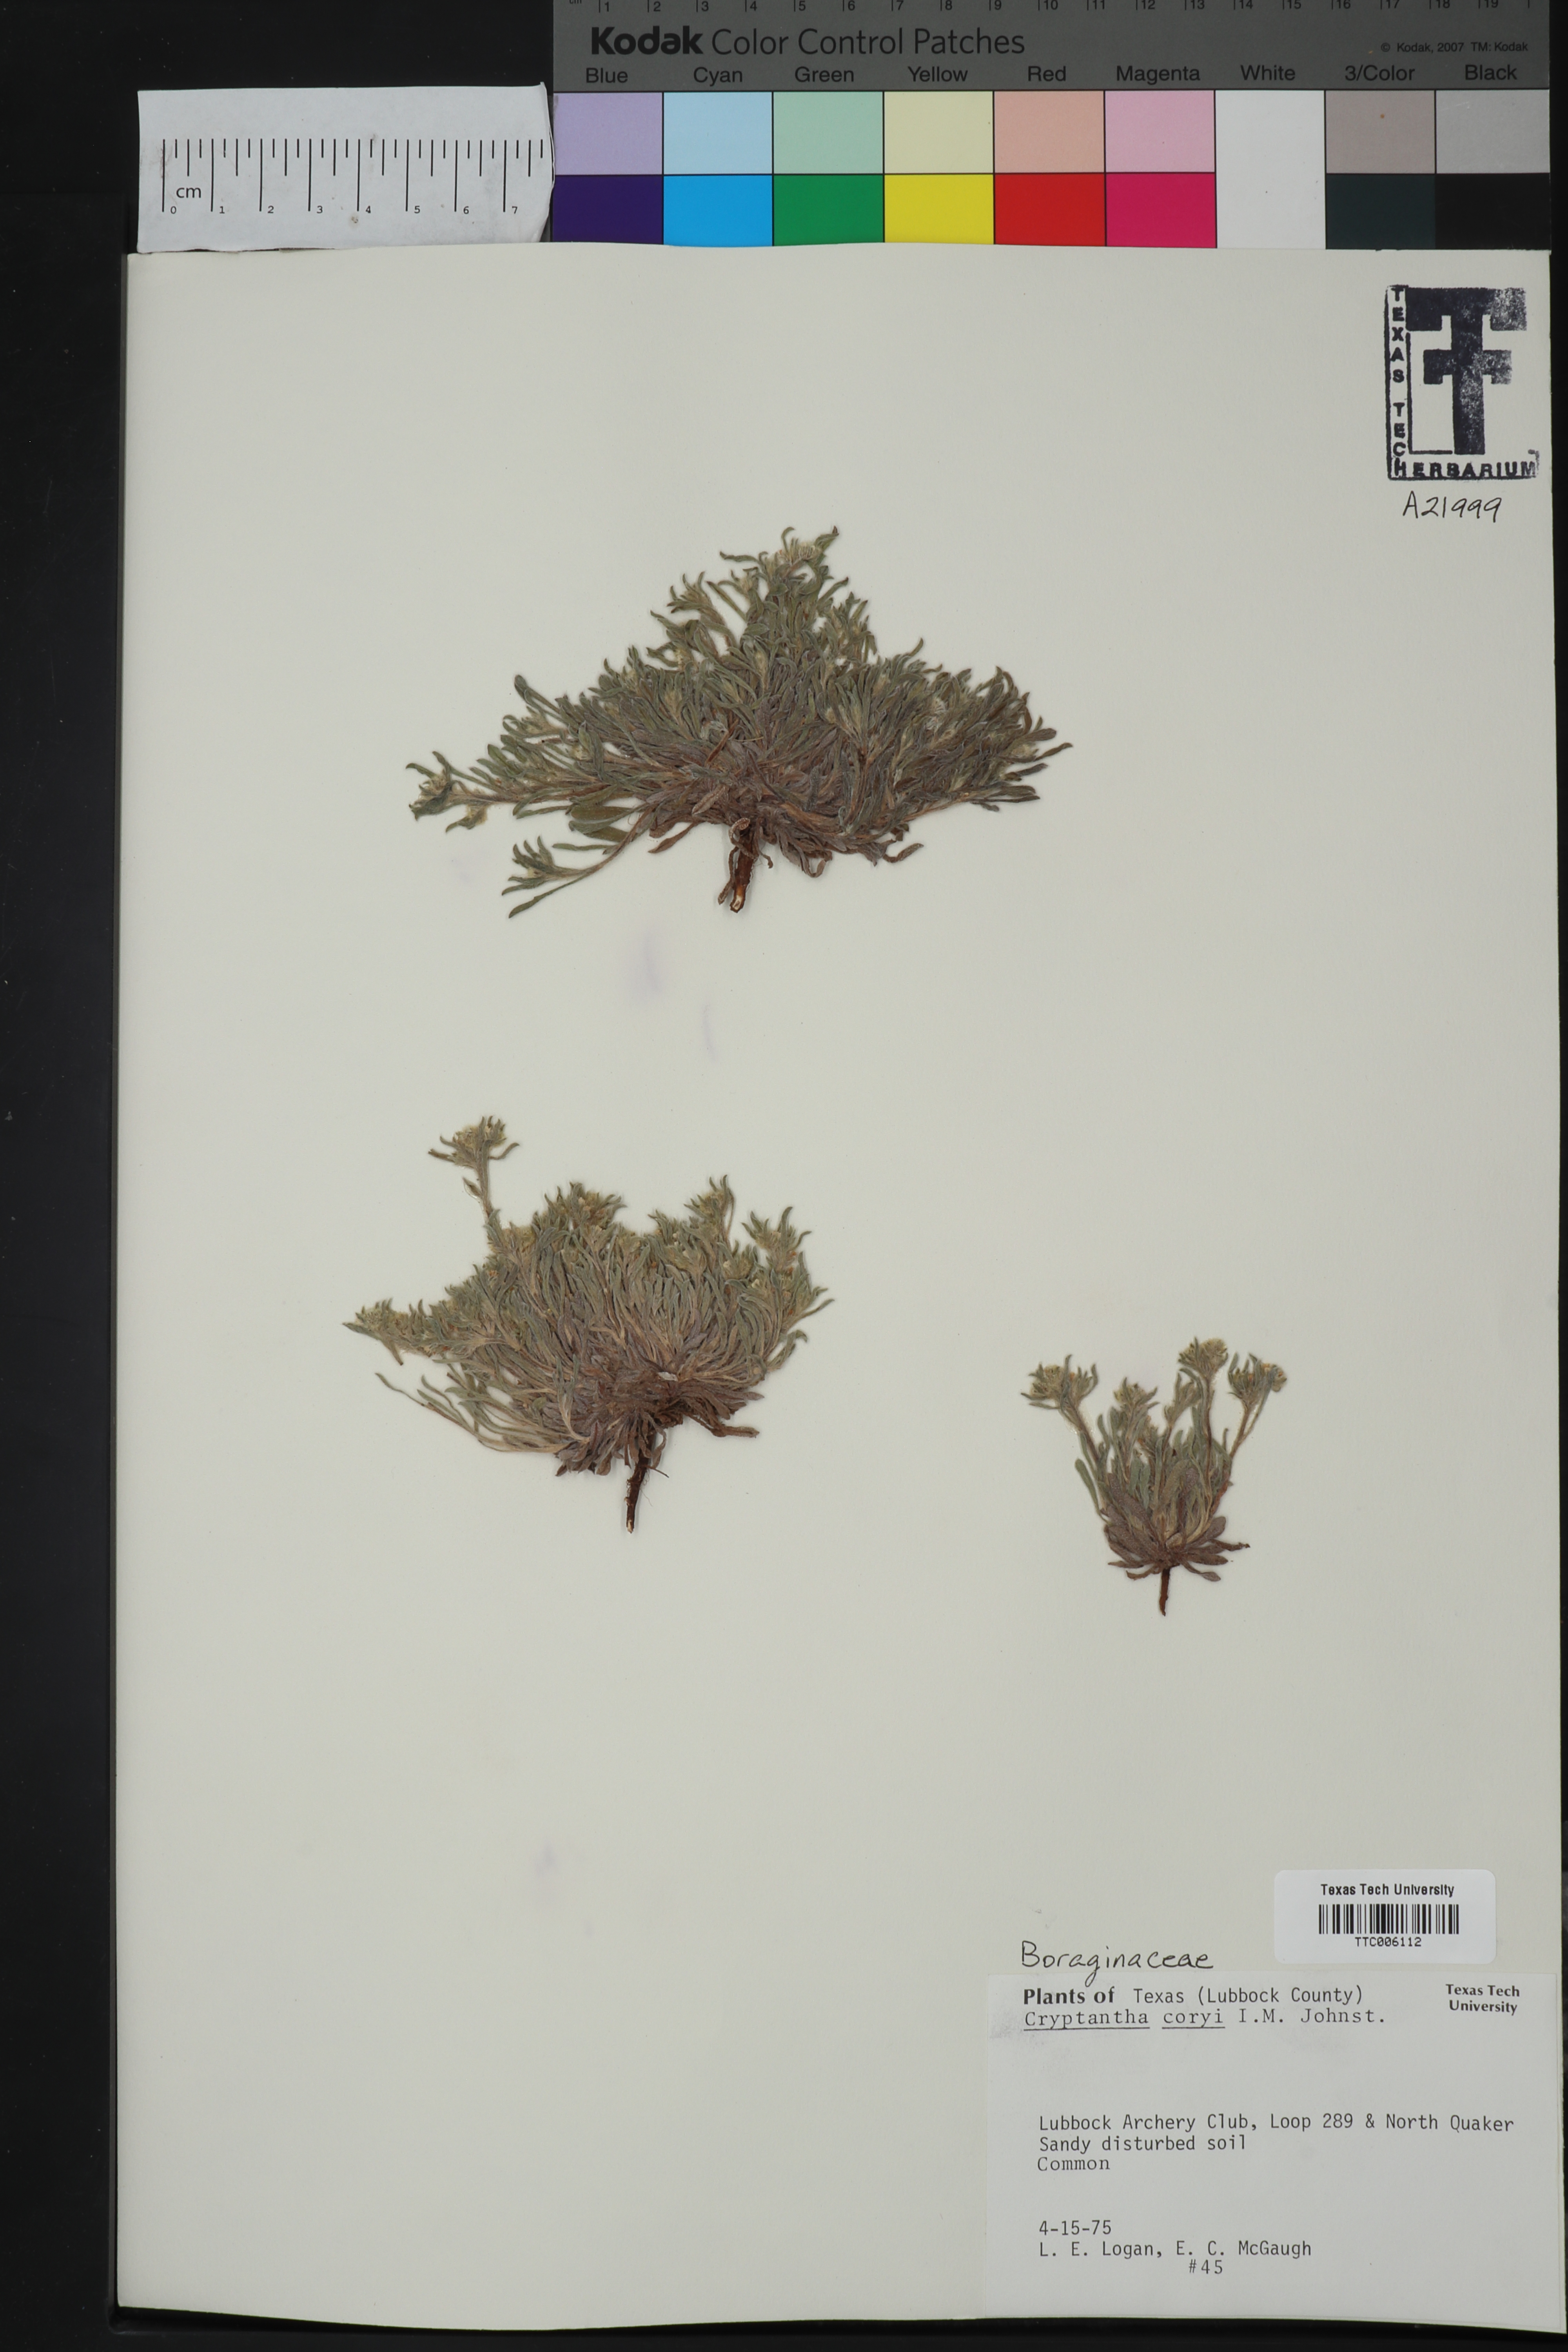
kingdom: Plantae
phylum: Tracheophyta
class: Magnoliopsida
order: Boraginales
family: Boraginaceae
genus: Oreocarya
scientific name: Oreocarya palmeri
